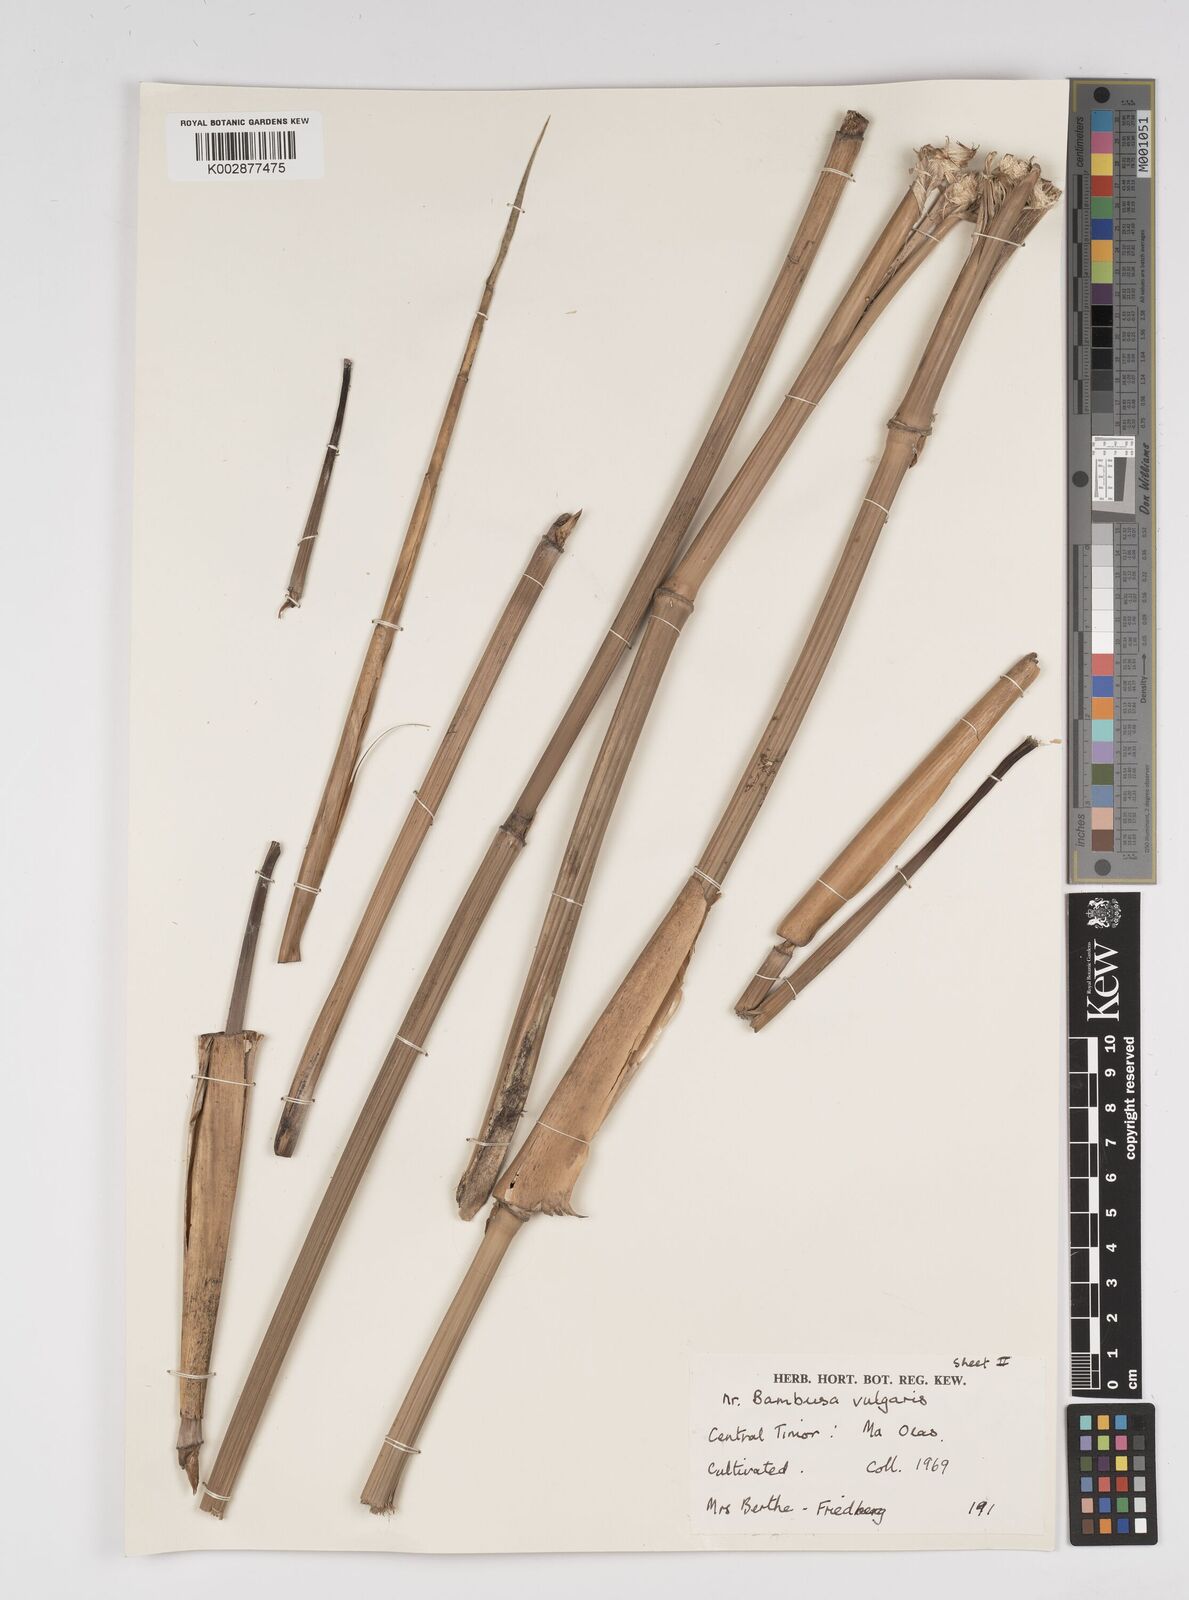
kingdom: Plantae
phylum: Tracheophyta
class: Liliopsida
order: Poales
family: Poaceae
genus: Bambusa
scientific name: Bambusa
